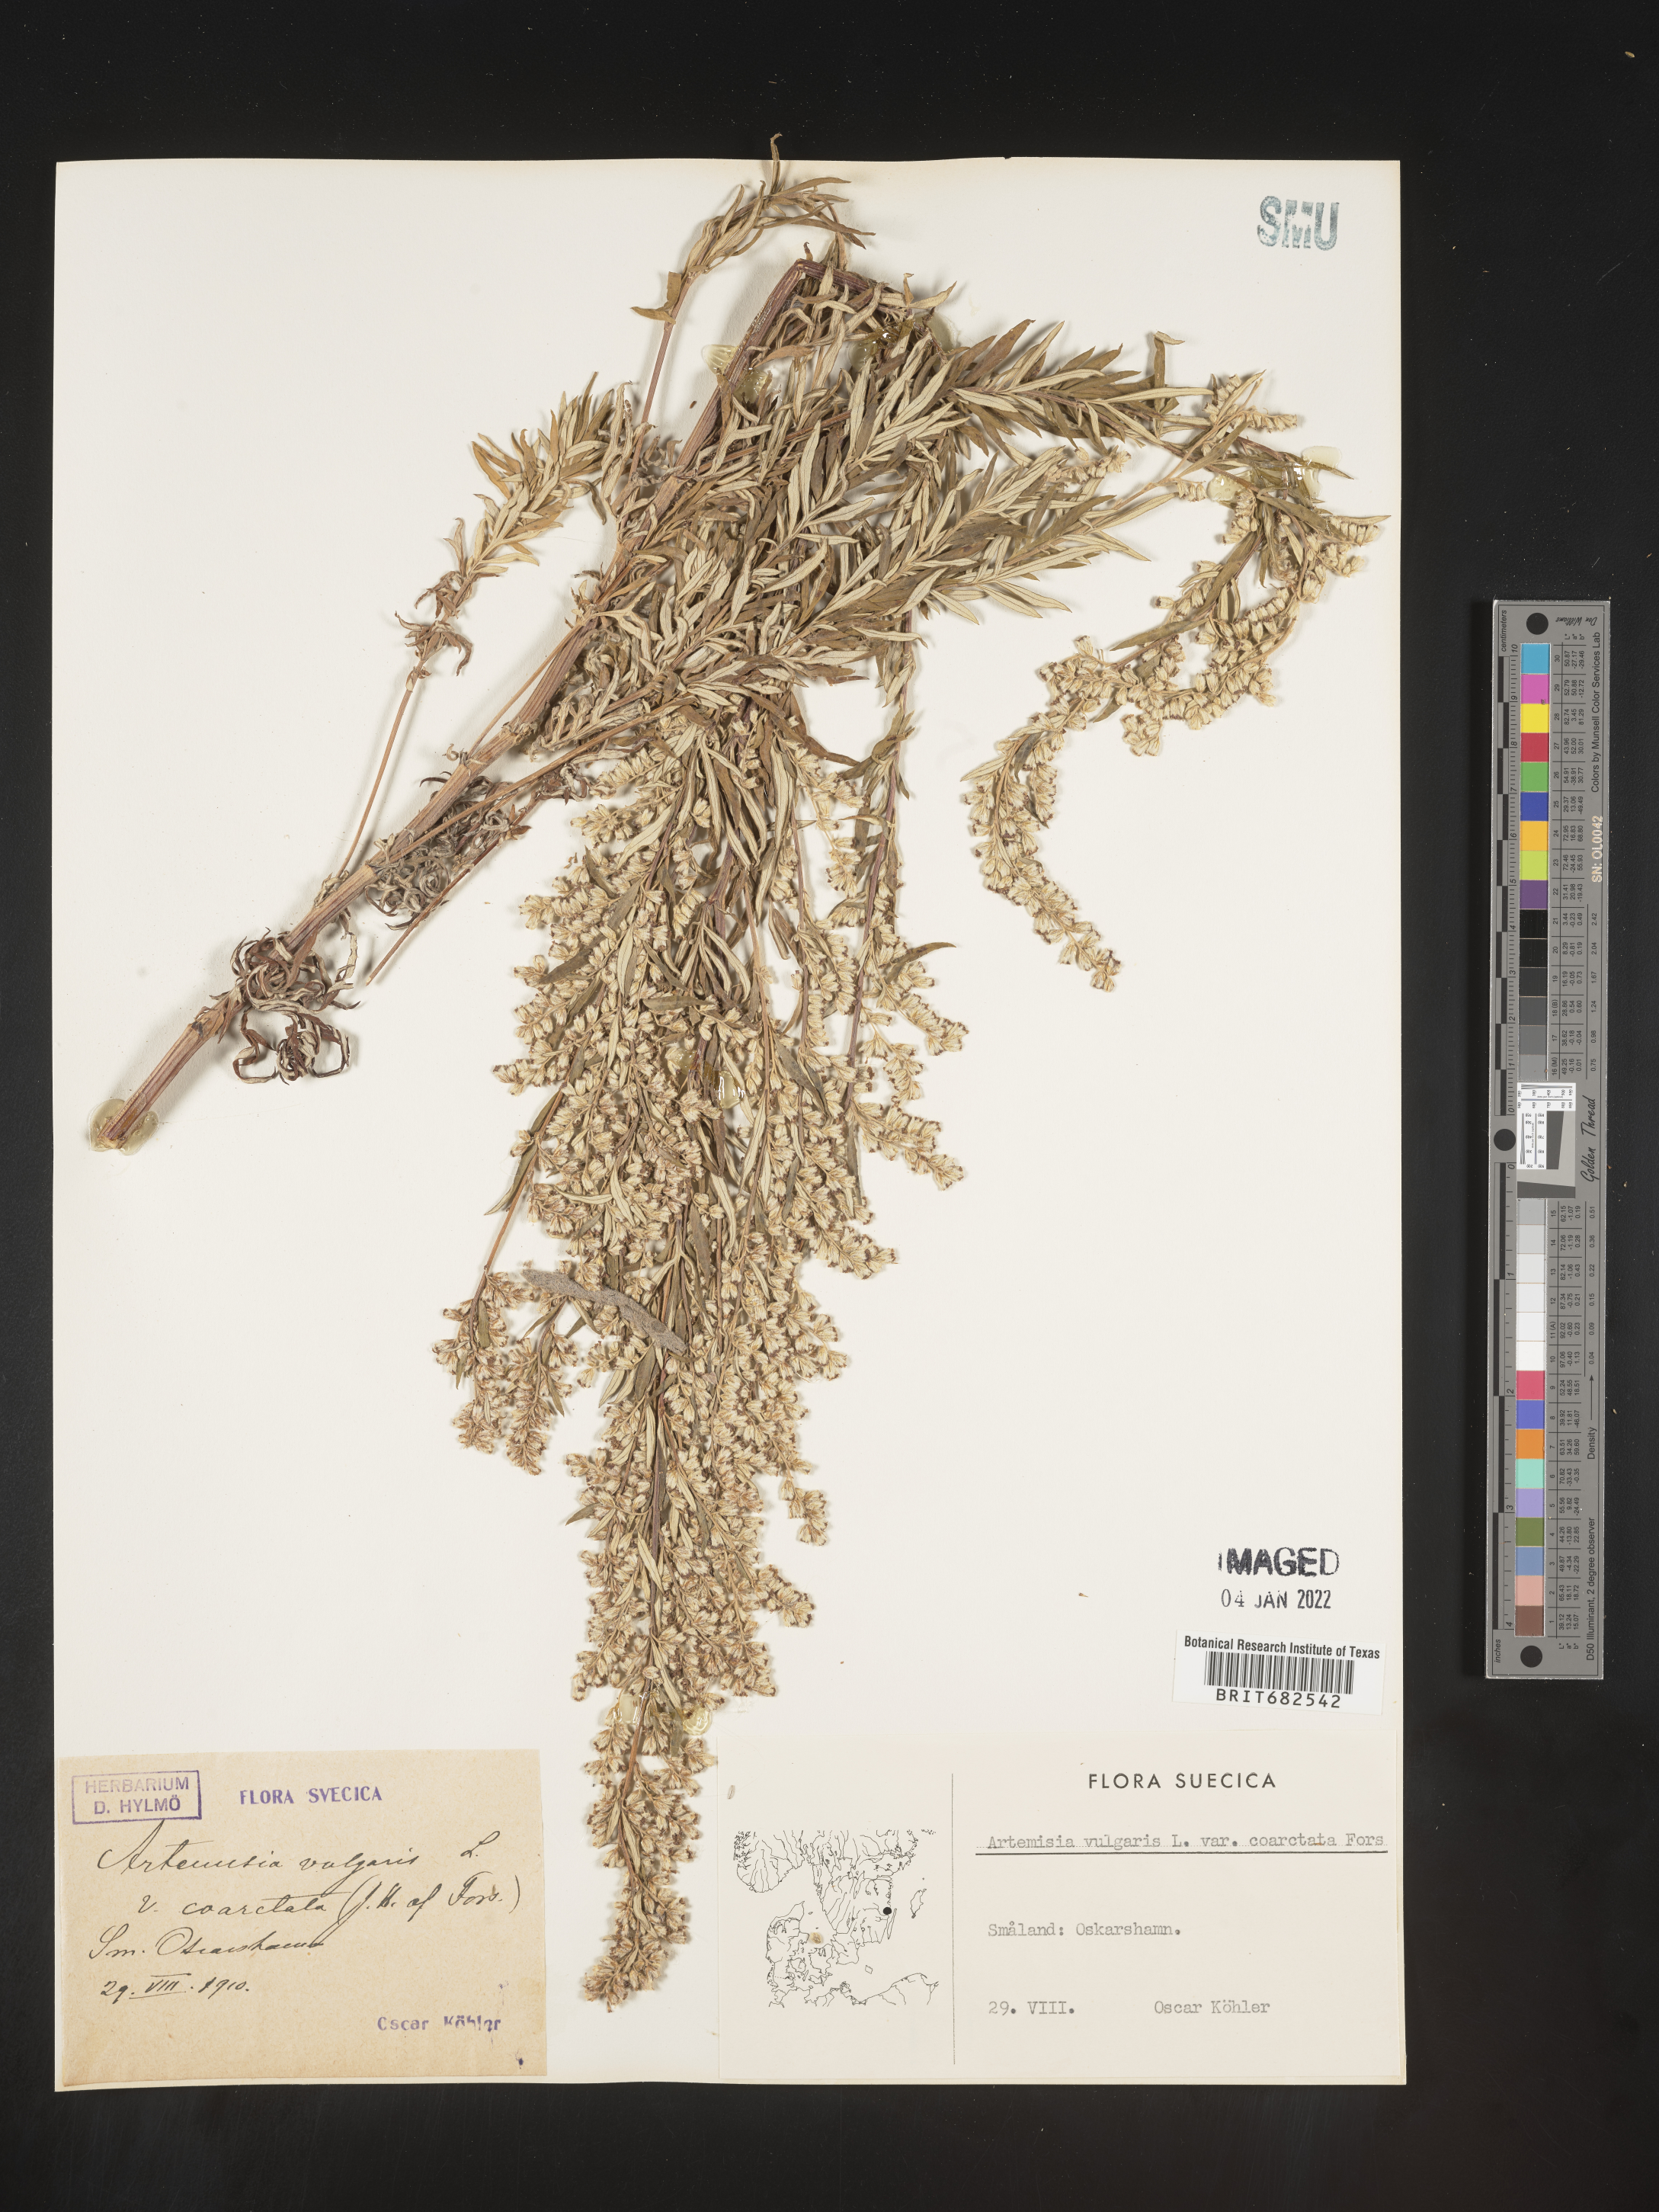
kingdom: Plantae
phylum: Tracheophyta
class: Magnoliopsida
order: Asterales
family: Asteraceae
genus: Artemisia
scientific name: Artemisia
